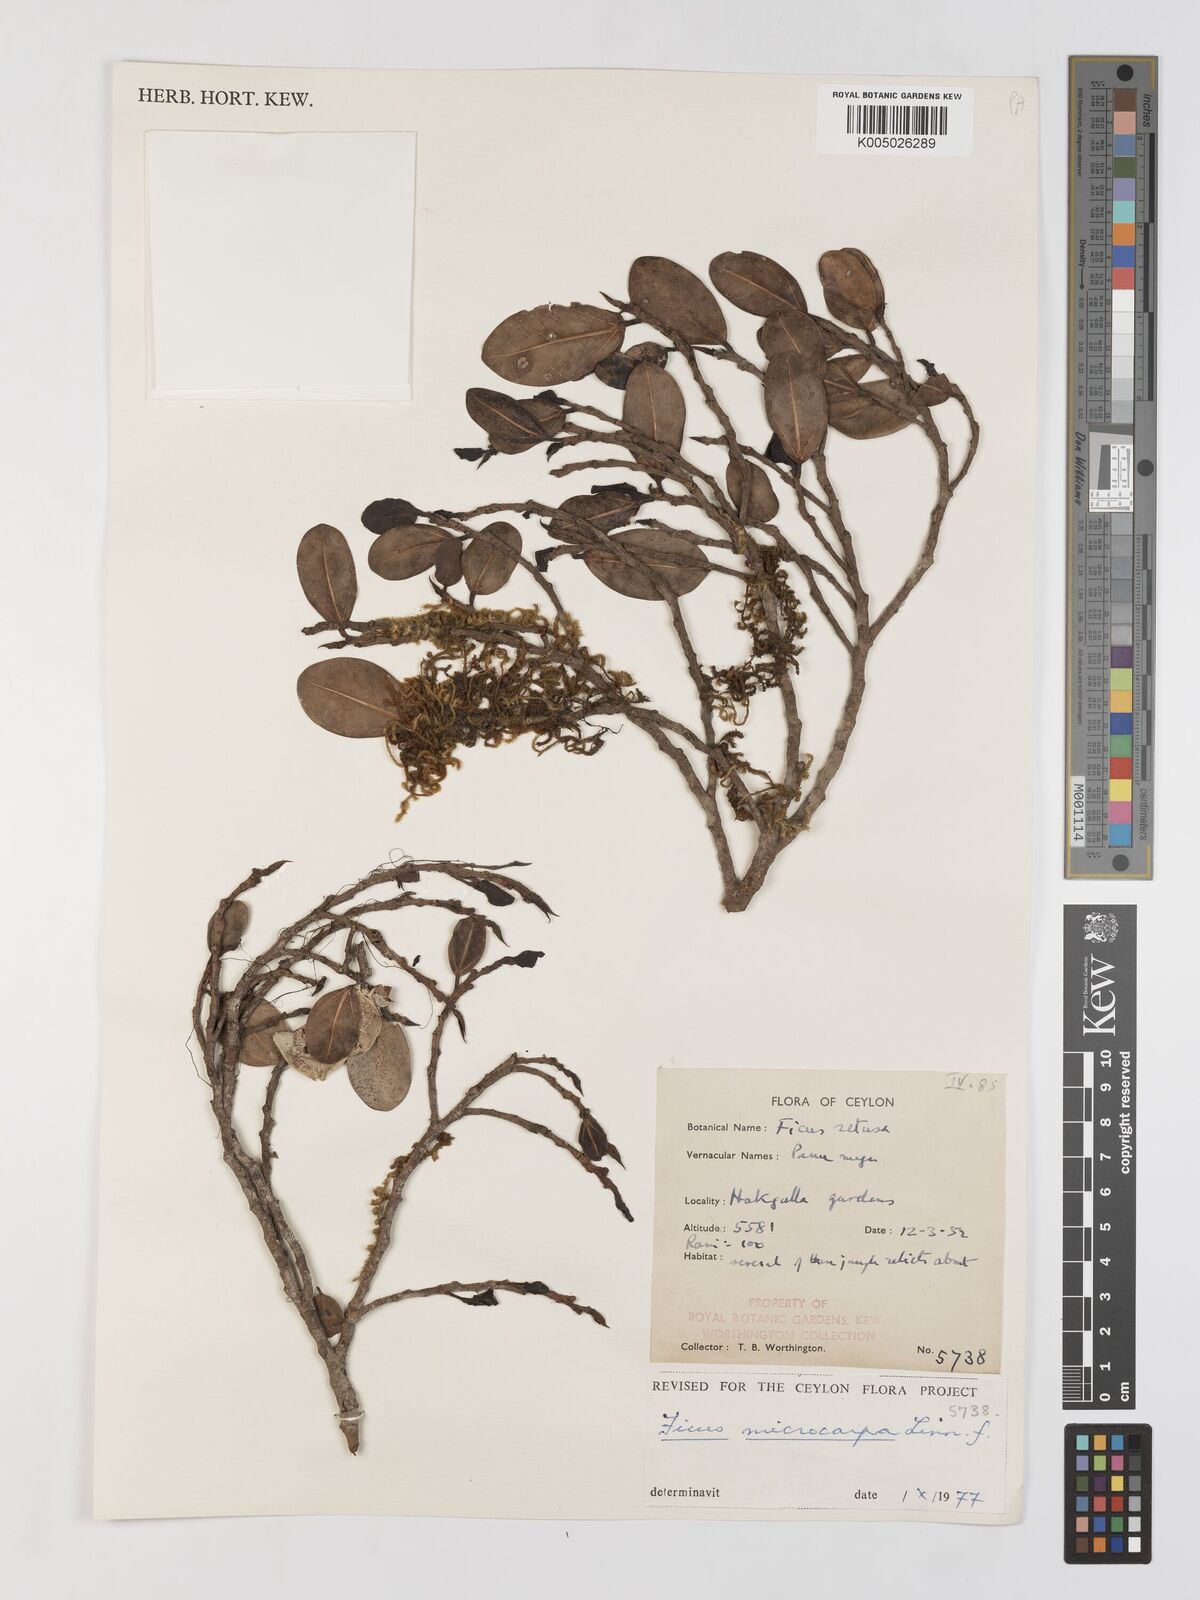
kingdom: Plantae
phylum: Tracheophyta
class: Magnoliopsida
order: Rosales
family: Moraceae
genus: Ficus
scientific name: Ficus
